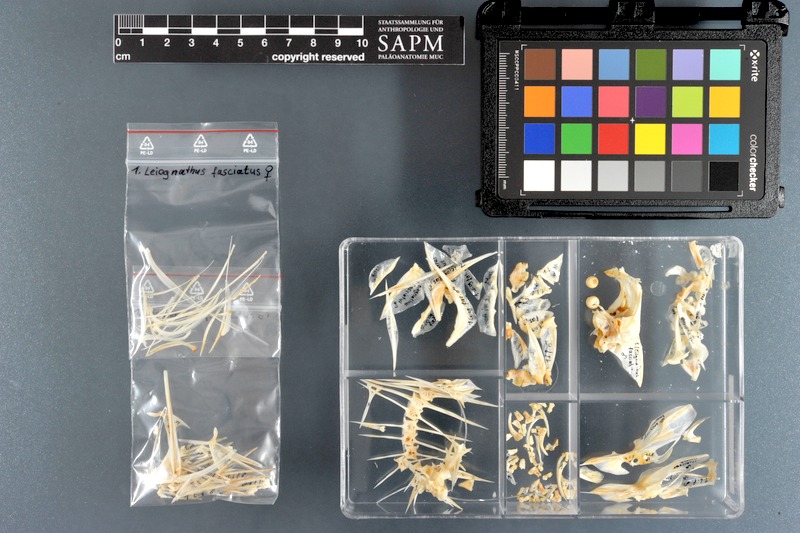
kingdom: Animalia
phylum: Chordata
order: Perciformes
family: Leiognathidae
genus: Aurigequula
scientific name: Aurigequula fasciata
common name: Striped ponyfish
